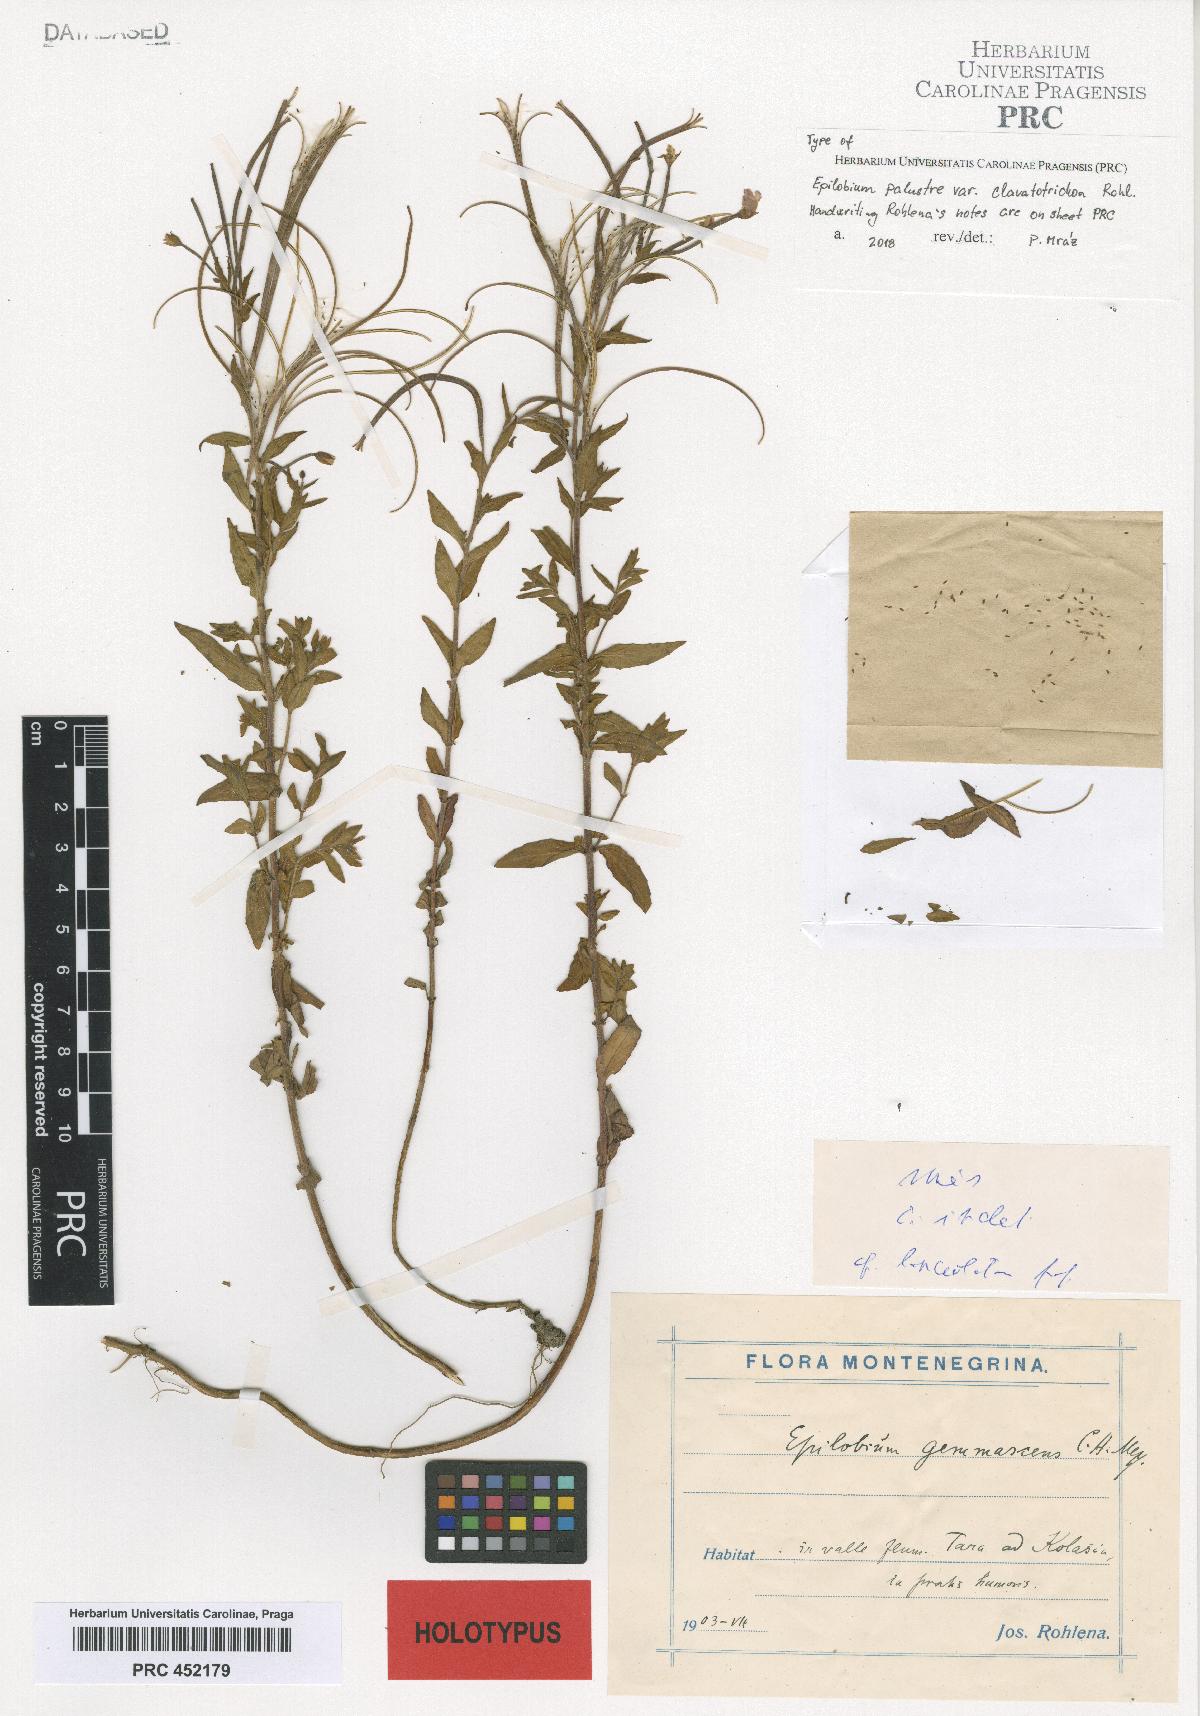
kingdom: Plantae
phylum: Tracheophyta
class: Magnoliopsida
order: Myrtales
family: Onagraceae
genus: Epilobium
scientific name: Epilobium palustre
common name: Marsh willowherb
